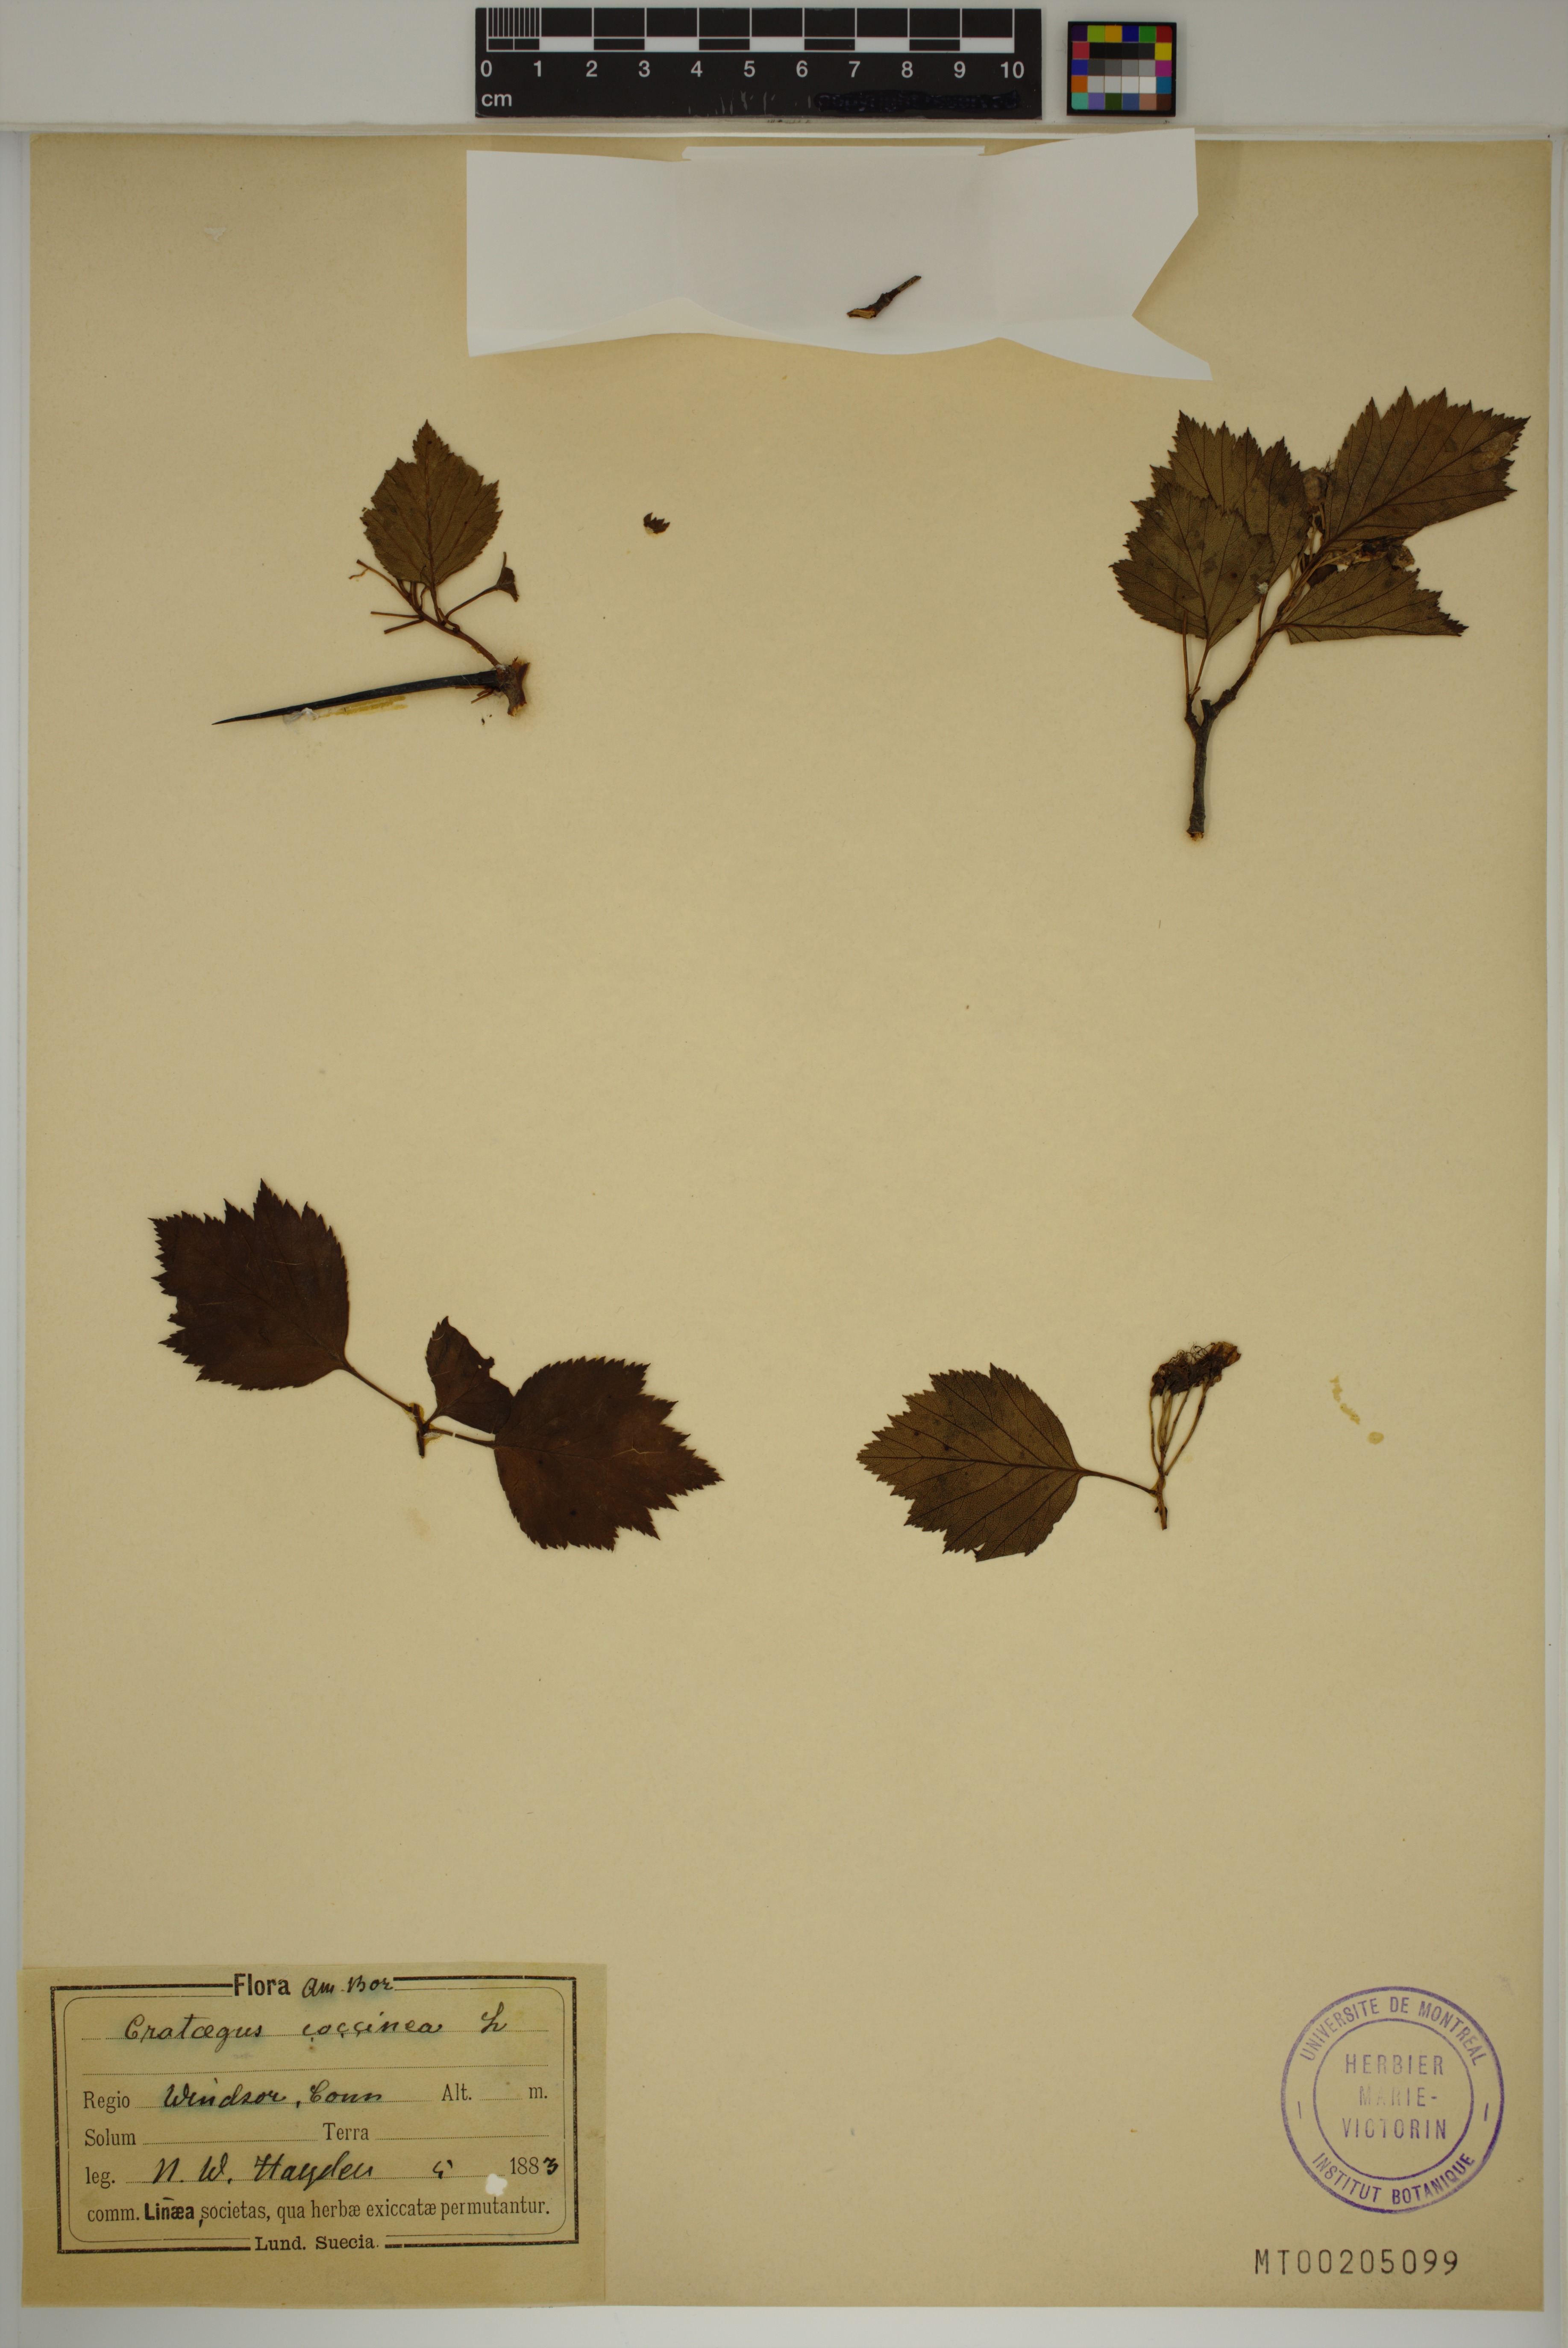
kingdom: Plantae
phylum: Tracheophyta
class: Magnoliopsida
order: Rosales
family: Rosaceae
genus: Crataegus
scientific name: Crataegus coccinea
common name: Scarlet hawthorn
